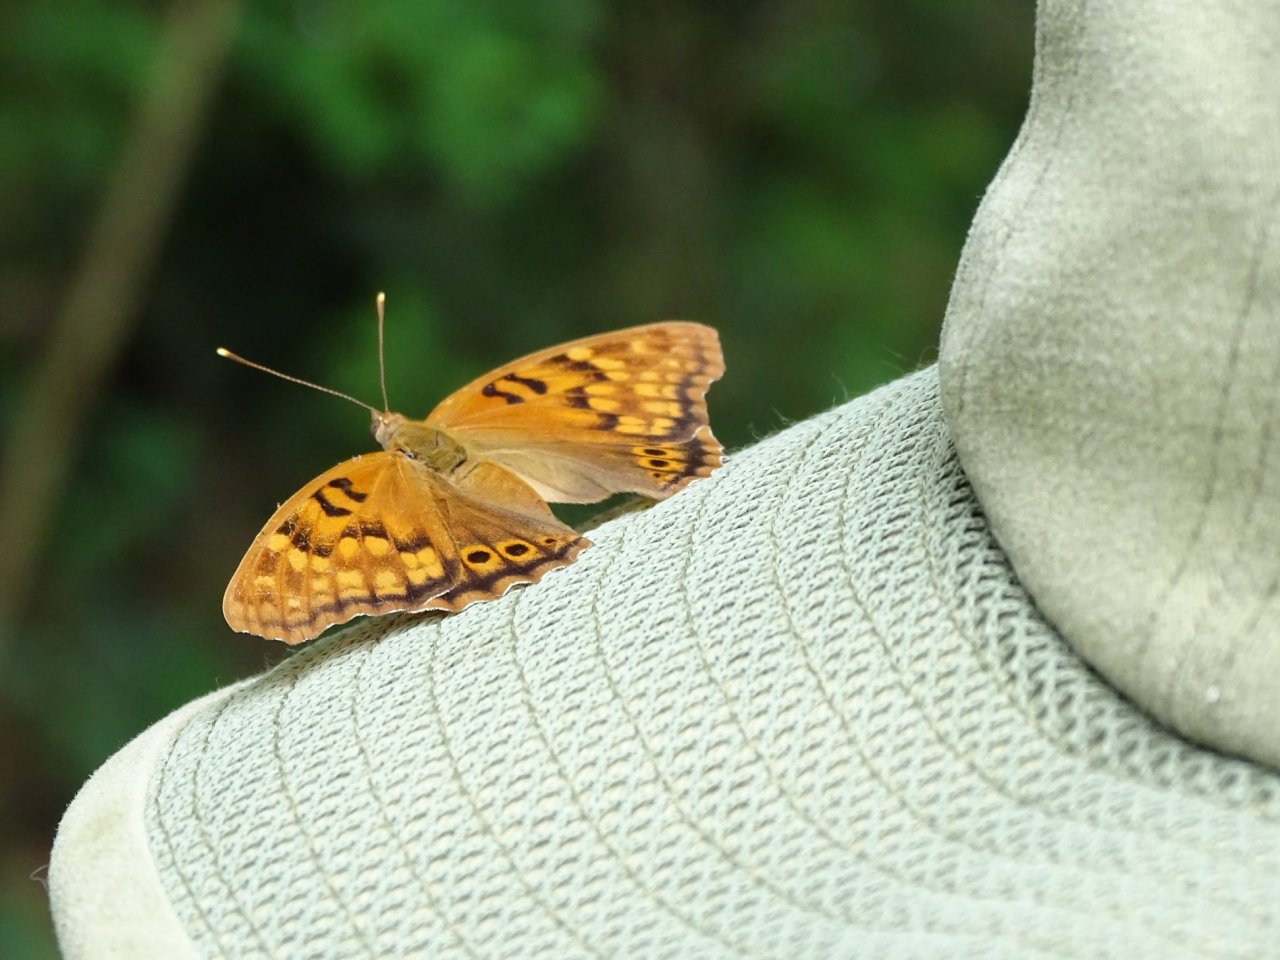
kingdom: Animalia
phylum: Arthropoda
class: Insecta
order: Lepidoptera
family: Nymphalidae
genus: Asterocampa
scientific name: Asterocampa clyton
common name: Tawny Emperor
